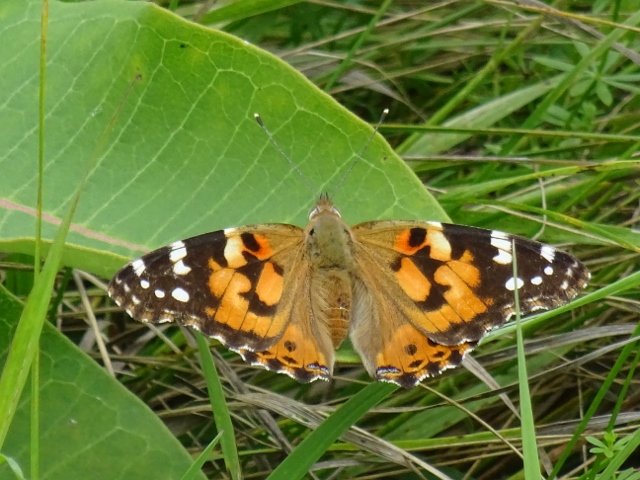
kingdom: Animalia
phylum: Arthropoda
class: Insecta
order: Lepidoptera
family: Nymphalidae
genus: Vanessa
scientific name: Vanessa cardui
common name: Painted Lady
